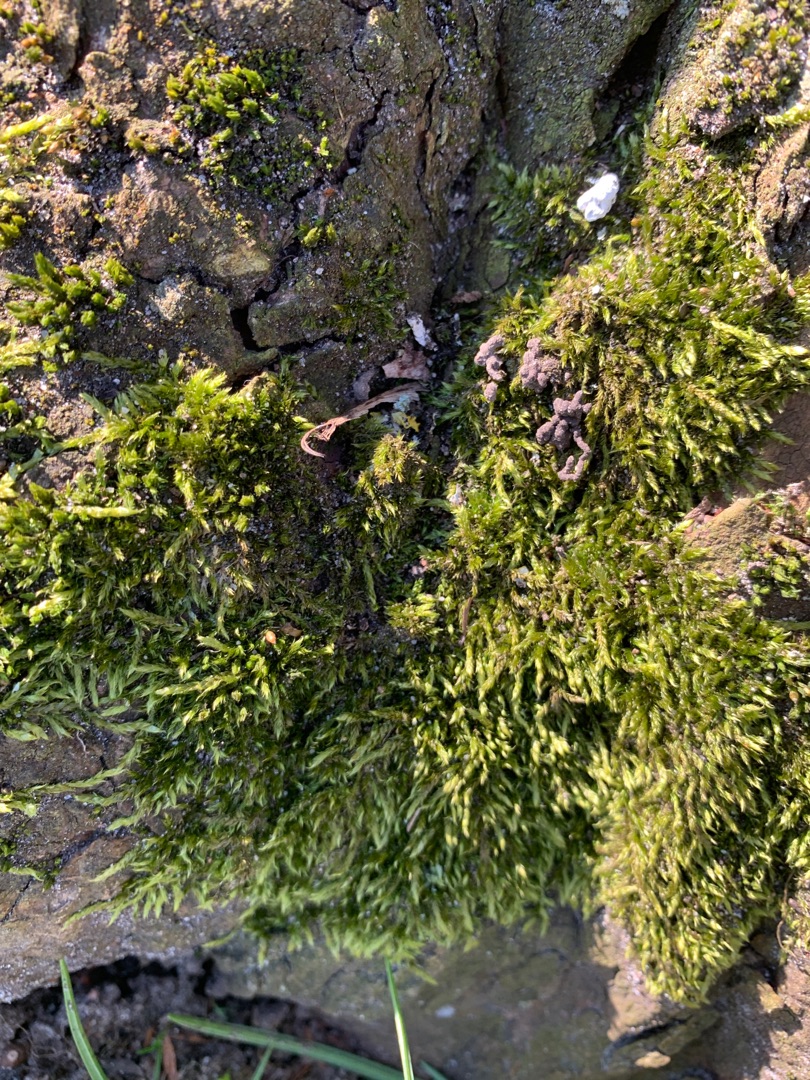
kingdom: Plantae
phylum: Bryophyta
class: Bryopsida
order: Hypnales
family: Hypnaceae
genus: Hypnum
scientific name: Hypnum cupressiforme
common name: Almindelig cypresmos
